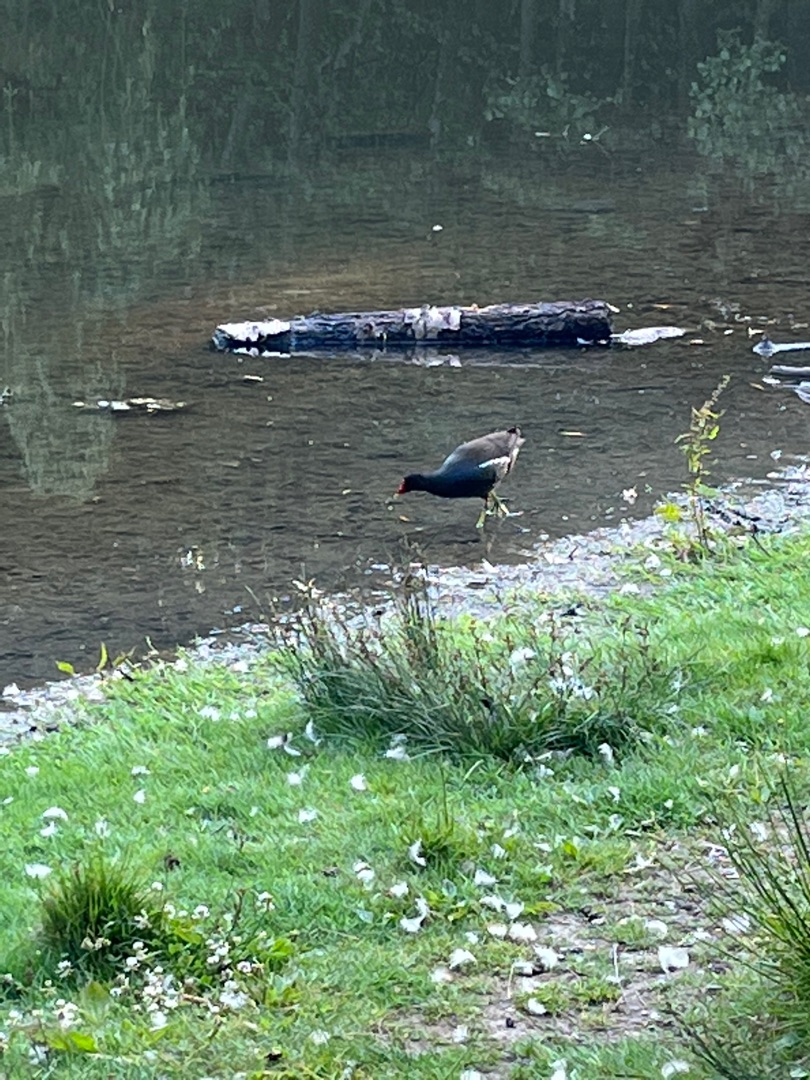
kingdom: Animalia
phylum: Chordata
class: Aves
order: Gruiformes
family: Rallidae
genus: Gallinula
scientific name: Gallinula chloropus
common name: Grønbenet rørhøne
